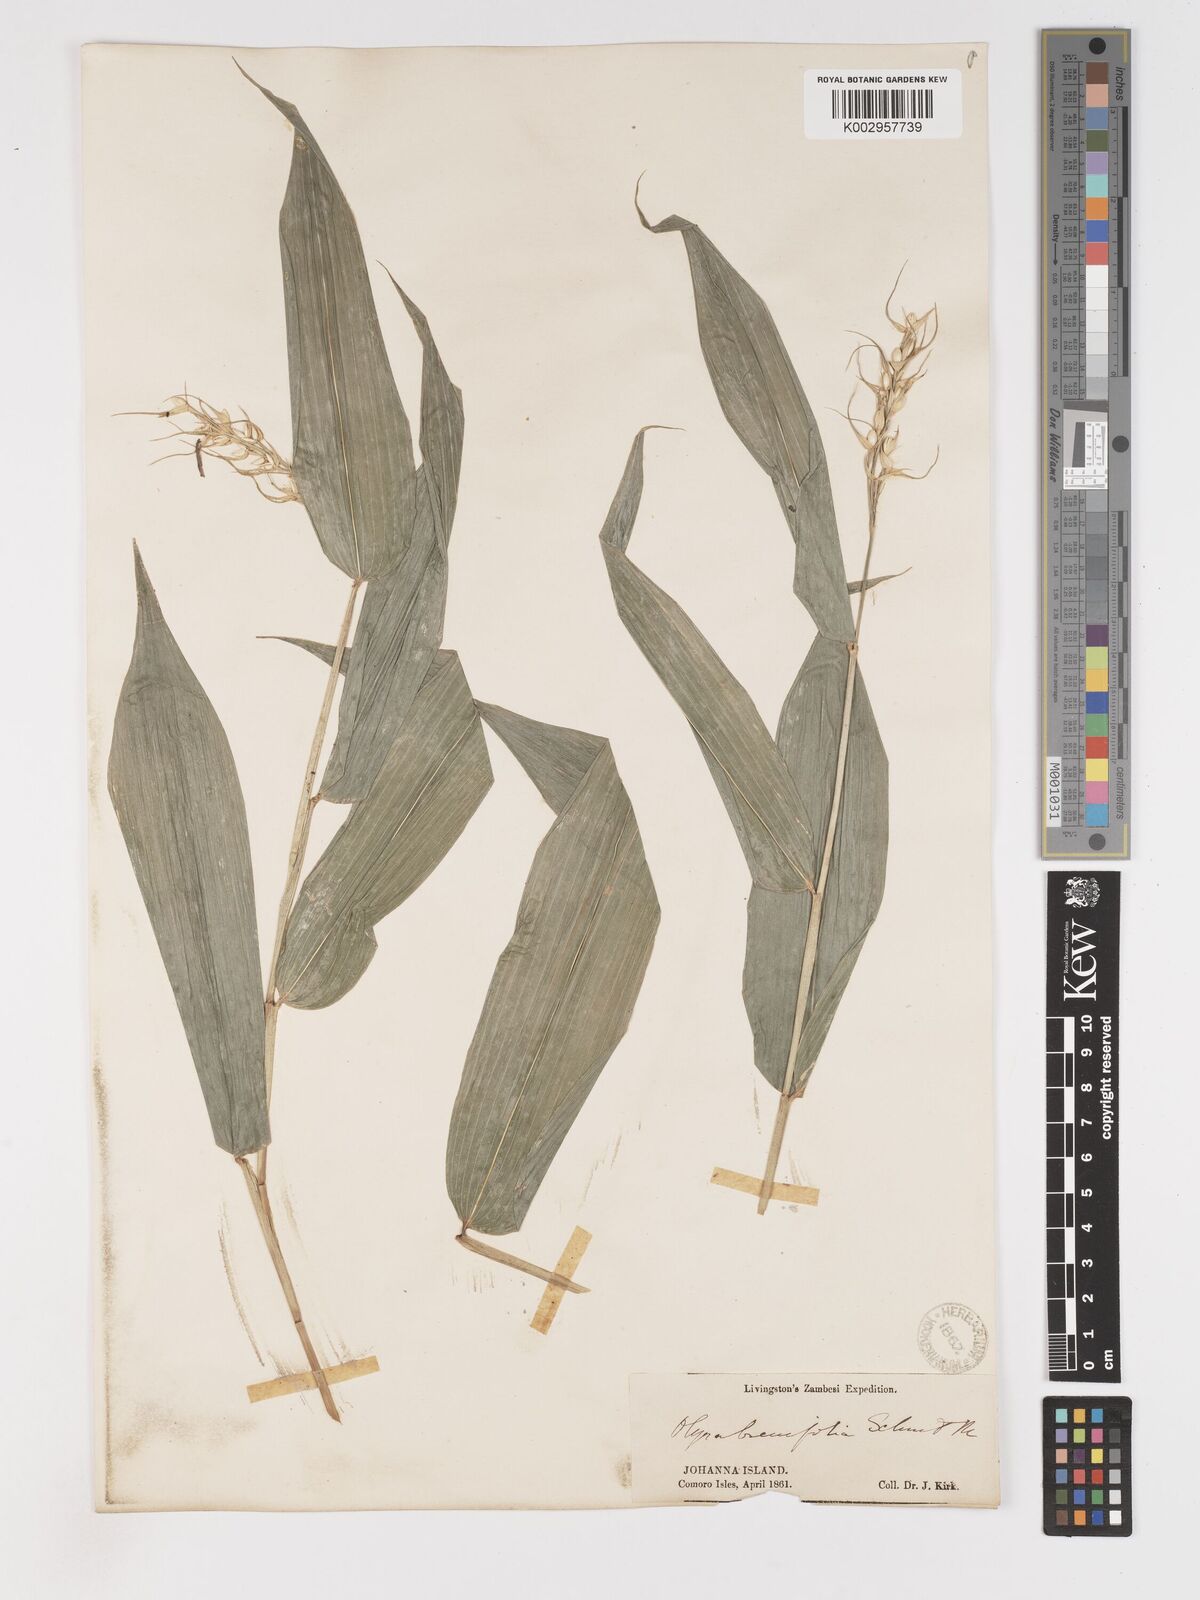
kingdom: Plantae
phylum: Tracheophyta
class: Liliopsida
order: Poales
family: Poaceae
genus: Olyra
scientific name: Olyra latifolia
